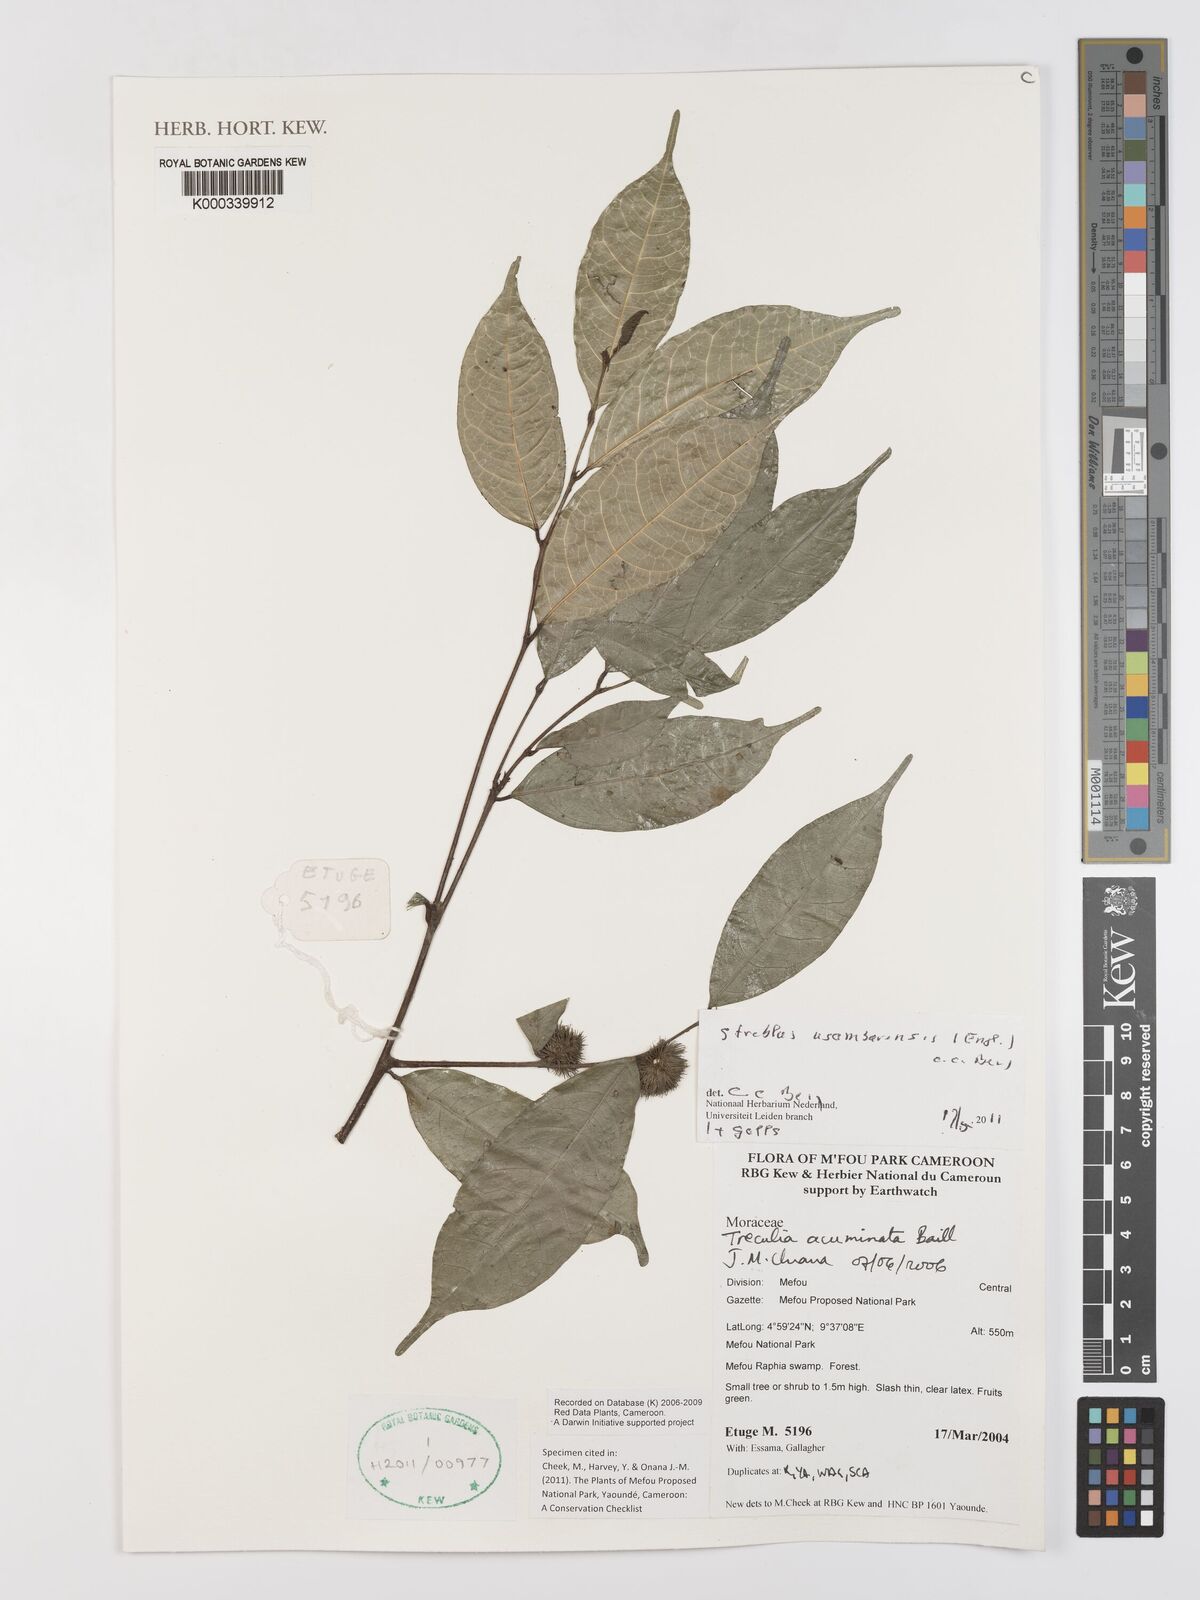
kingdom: Plantae
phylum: Tracheophyta
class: Magnoliopsida
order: Rosales
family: Moraceae
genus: Sloetiopsis
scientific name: Sloetiopsis usambarensis
